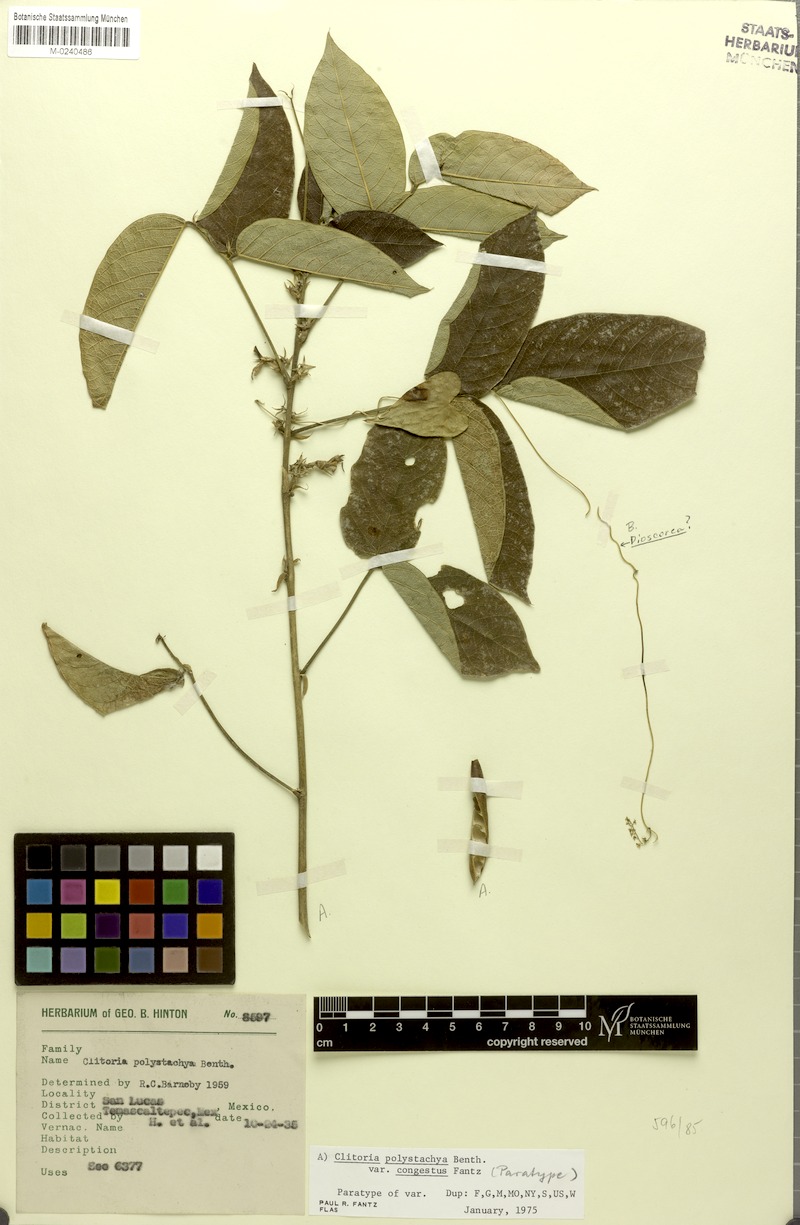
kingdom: Plantae
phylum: Tracheophyta
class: Magnoliopsida
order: Fabales
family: Fabaceae
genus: Clitoria
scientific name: Clitoria polystachya
